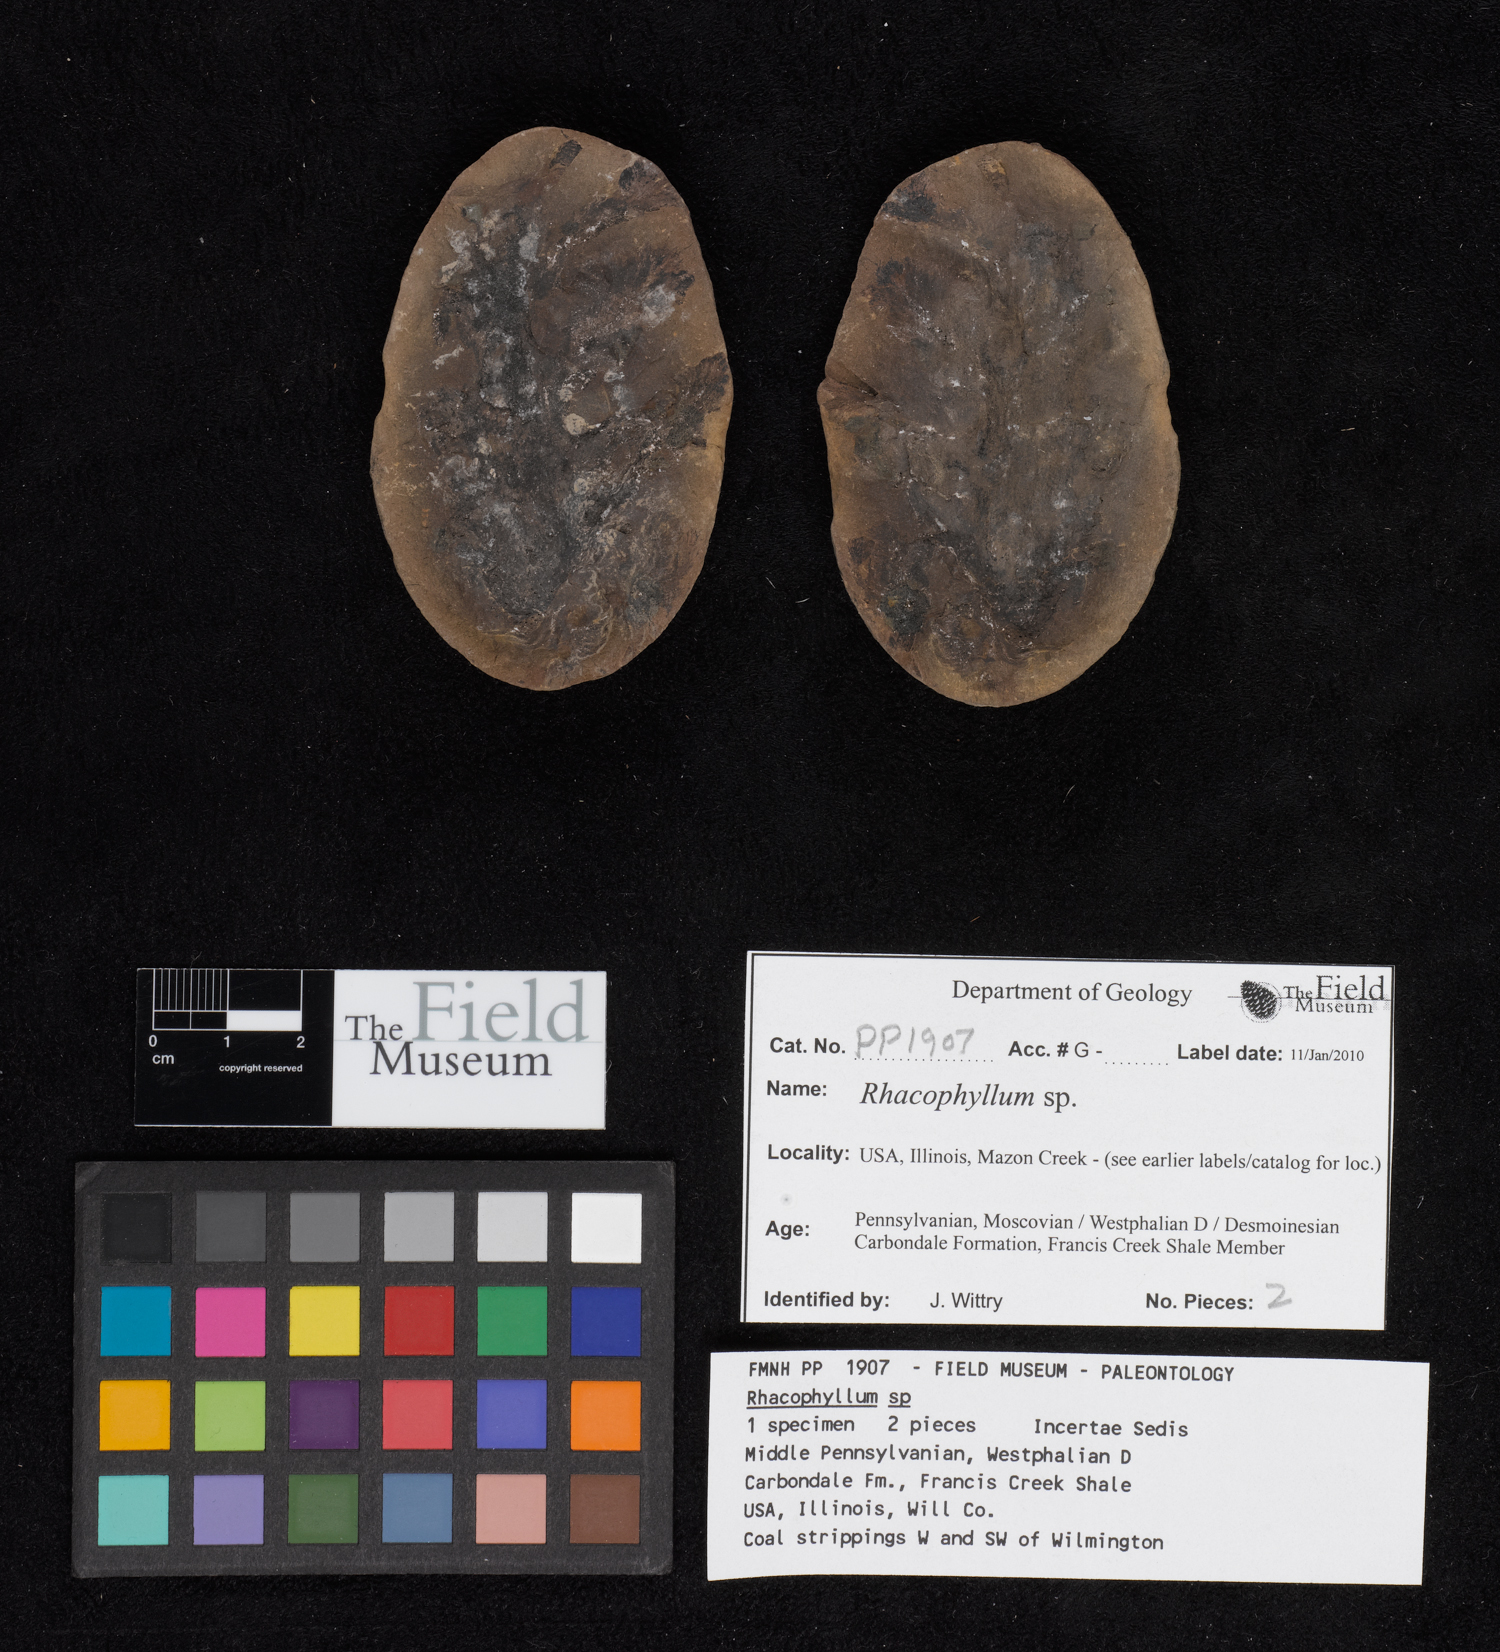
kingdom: Plantae
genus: Rhacophyllum
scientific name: Rhacophyllum
